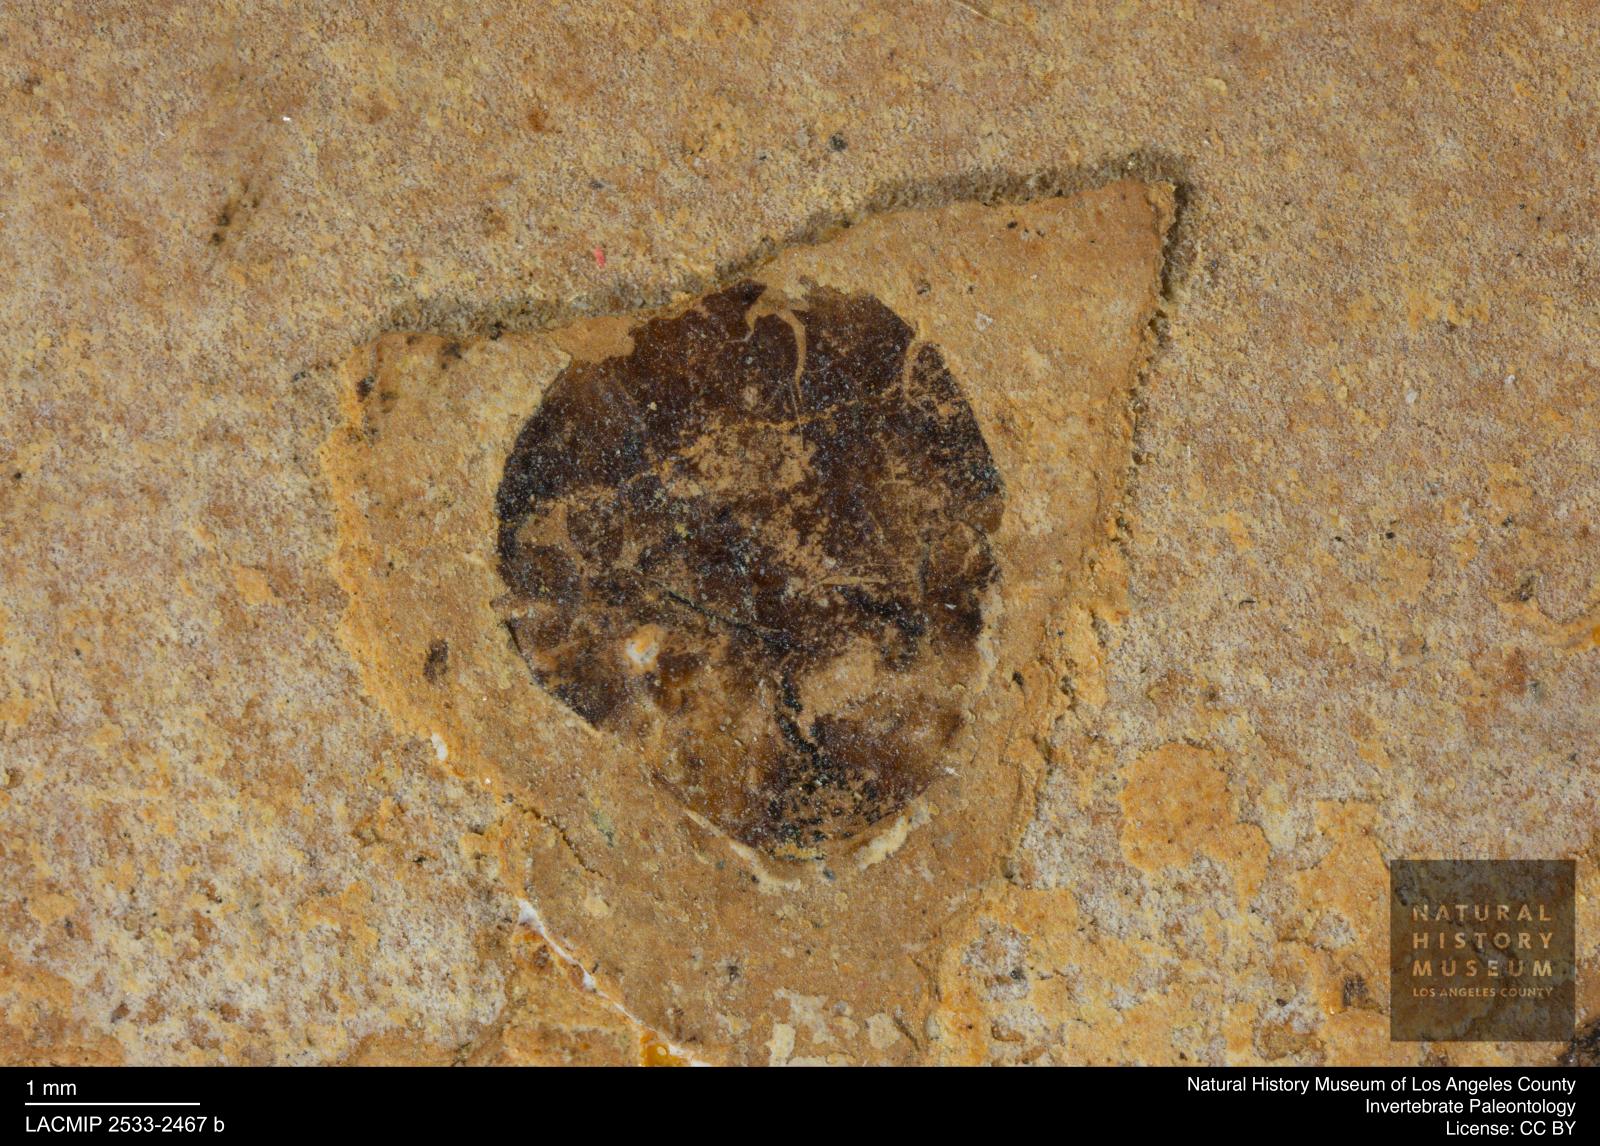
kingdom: Animalia
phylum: Arthropoda
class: Insecta
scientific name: Insecta
